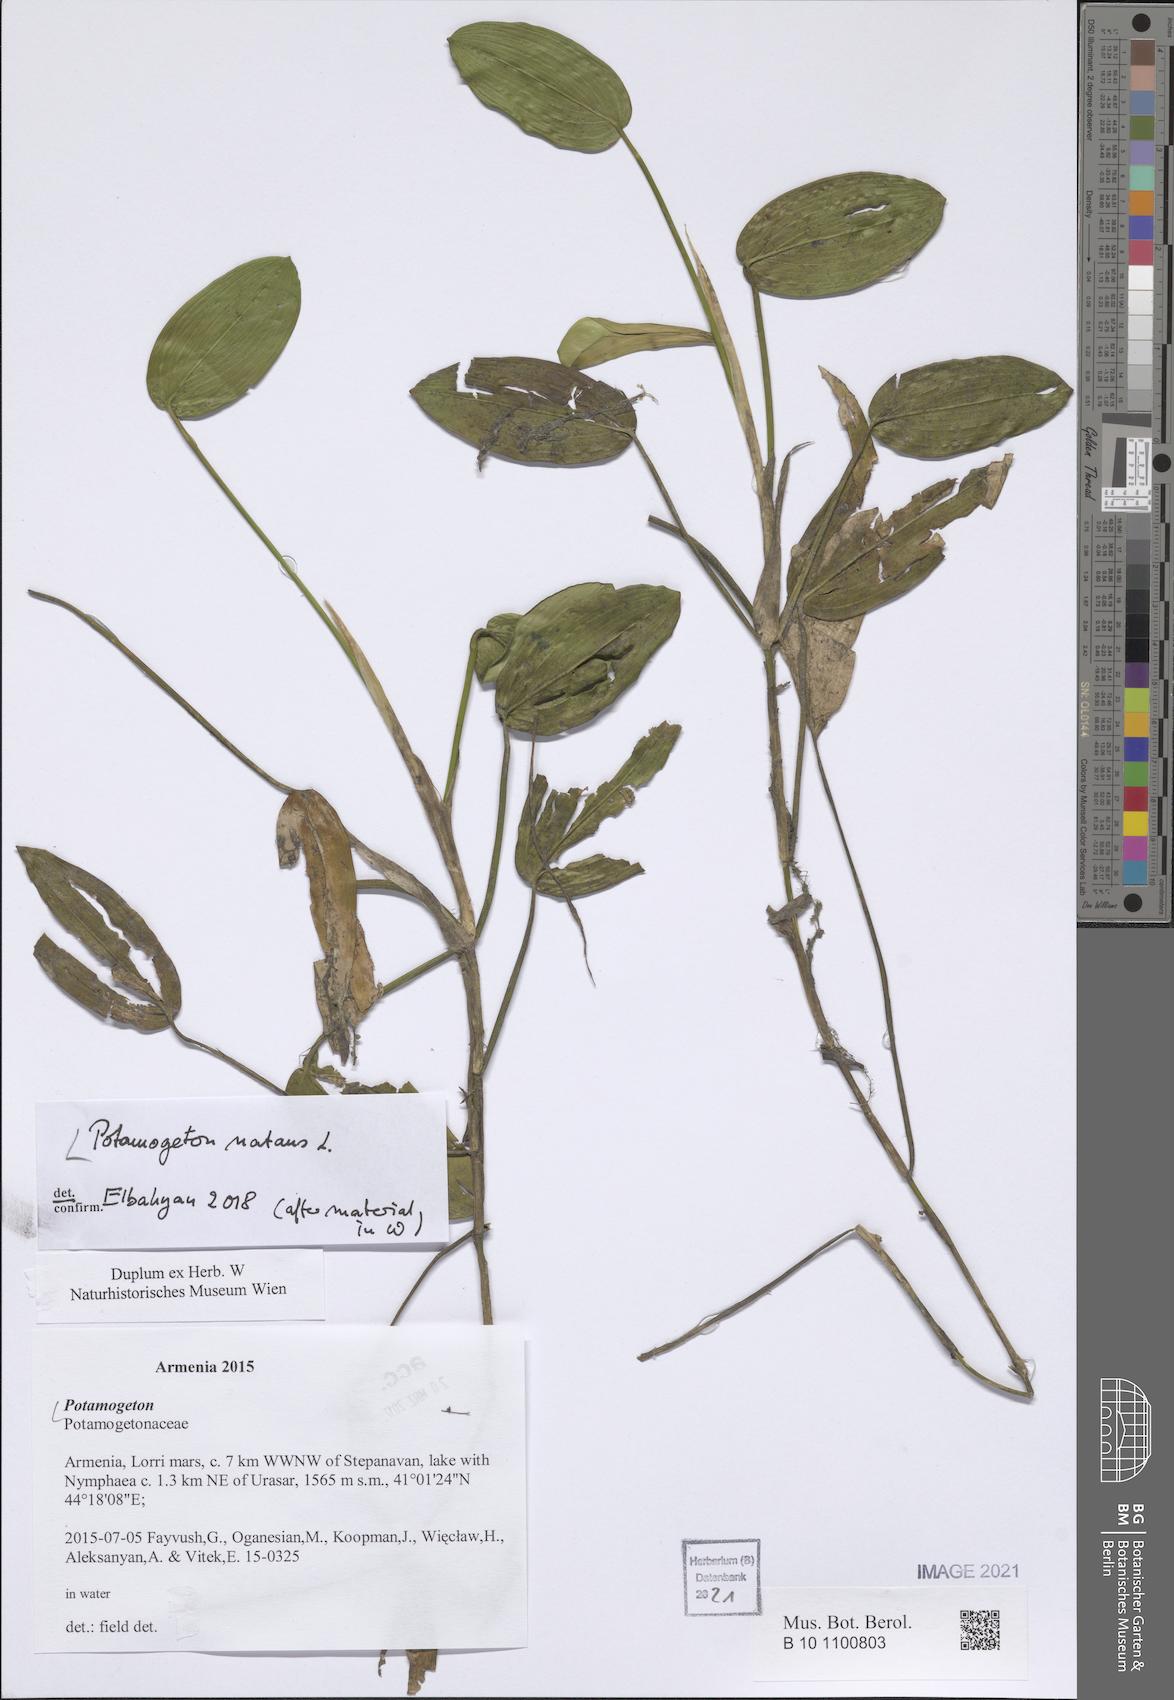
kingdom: Plantae
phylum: Tracheophyta
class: Liliopsida
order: Alismatales
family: Potamogetonaceae
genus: Potamogeton
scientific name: Potamogeton natans
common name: Broad-leaved pondweed
